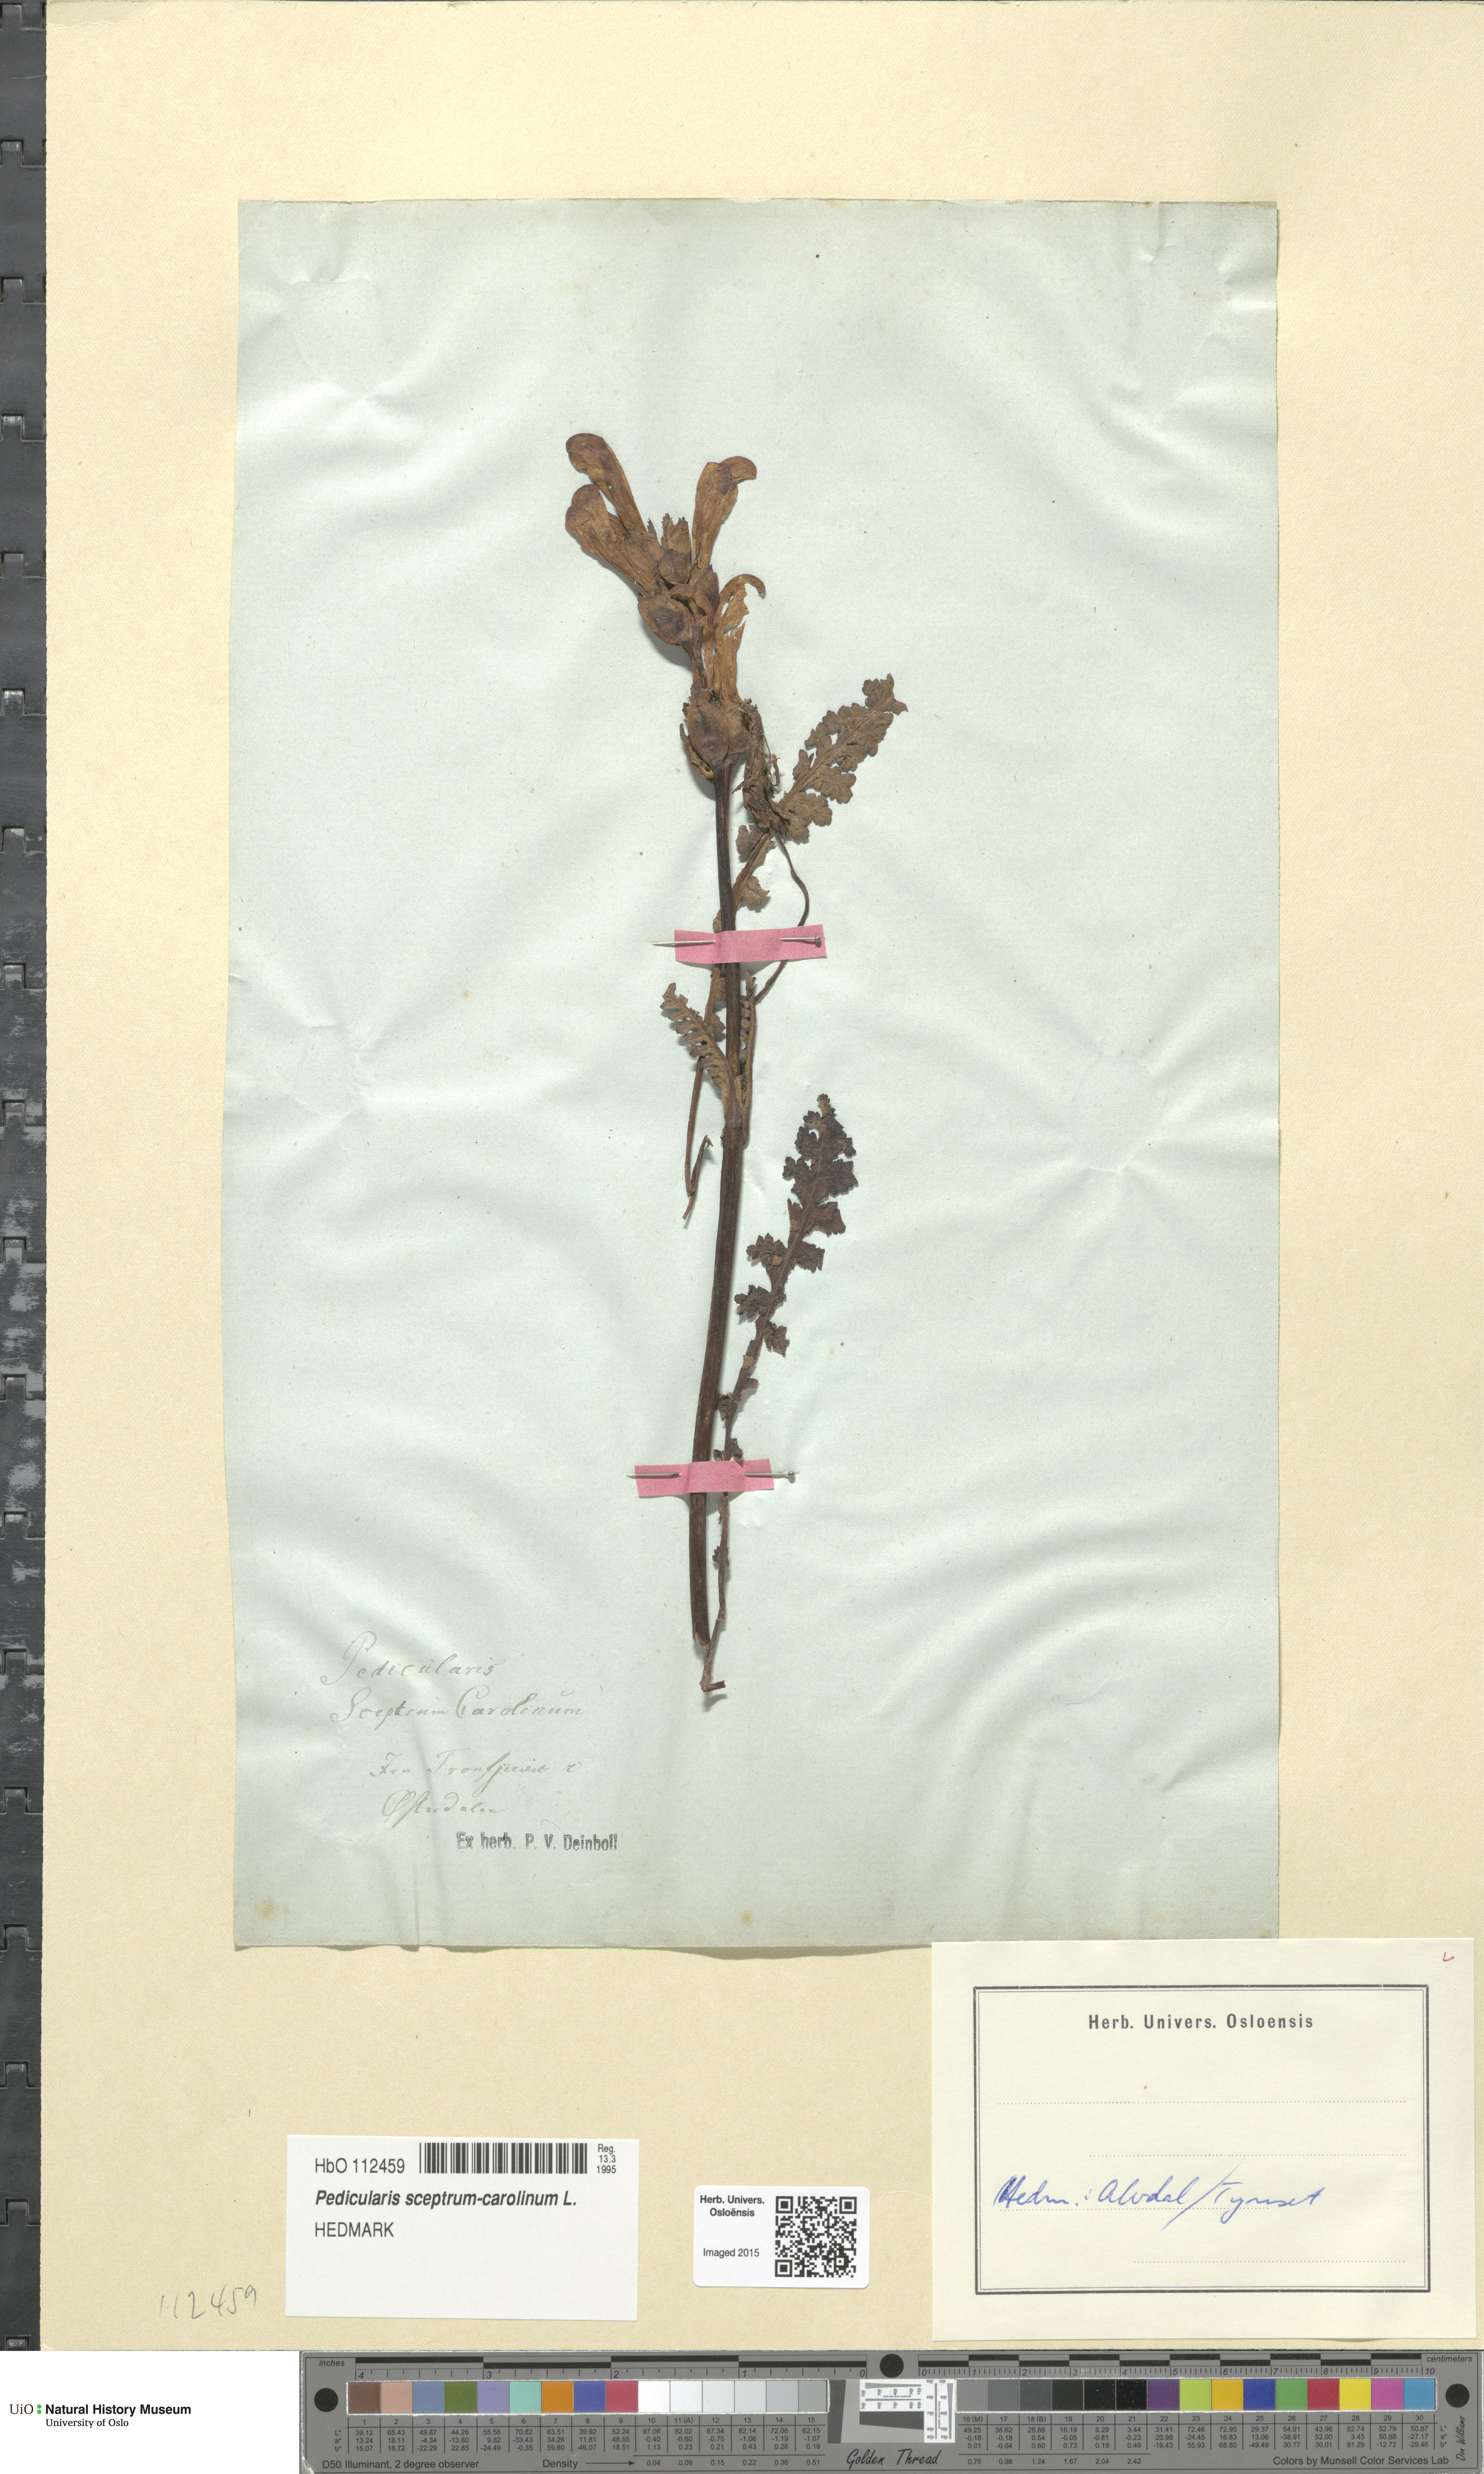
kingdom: Plantae
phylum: Tracheophyta
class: Magnoliopsida
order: Lamiales
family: Orobanchaceae
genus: Pedicularis
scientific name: Pedicularis sceptrum-carolinum
